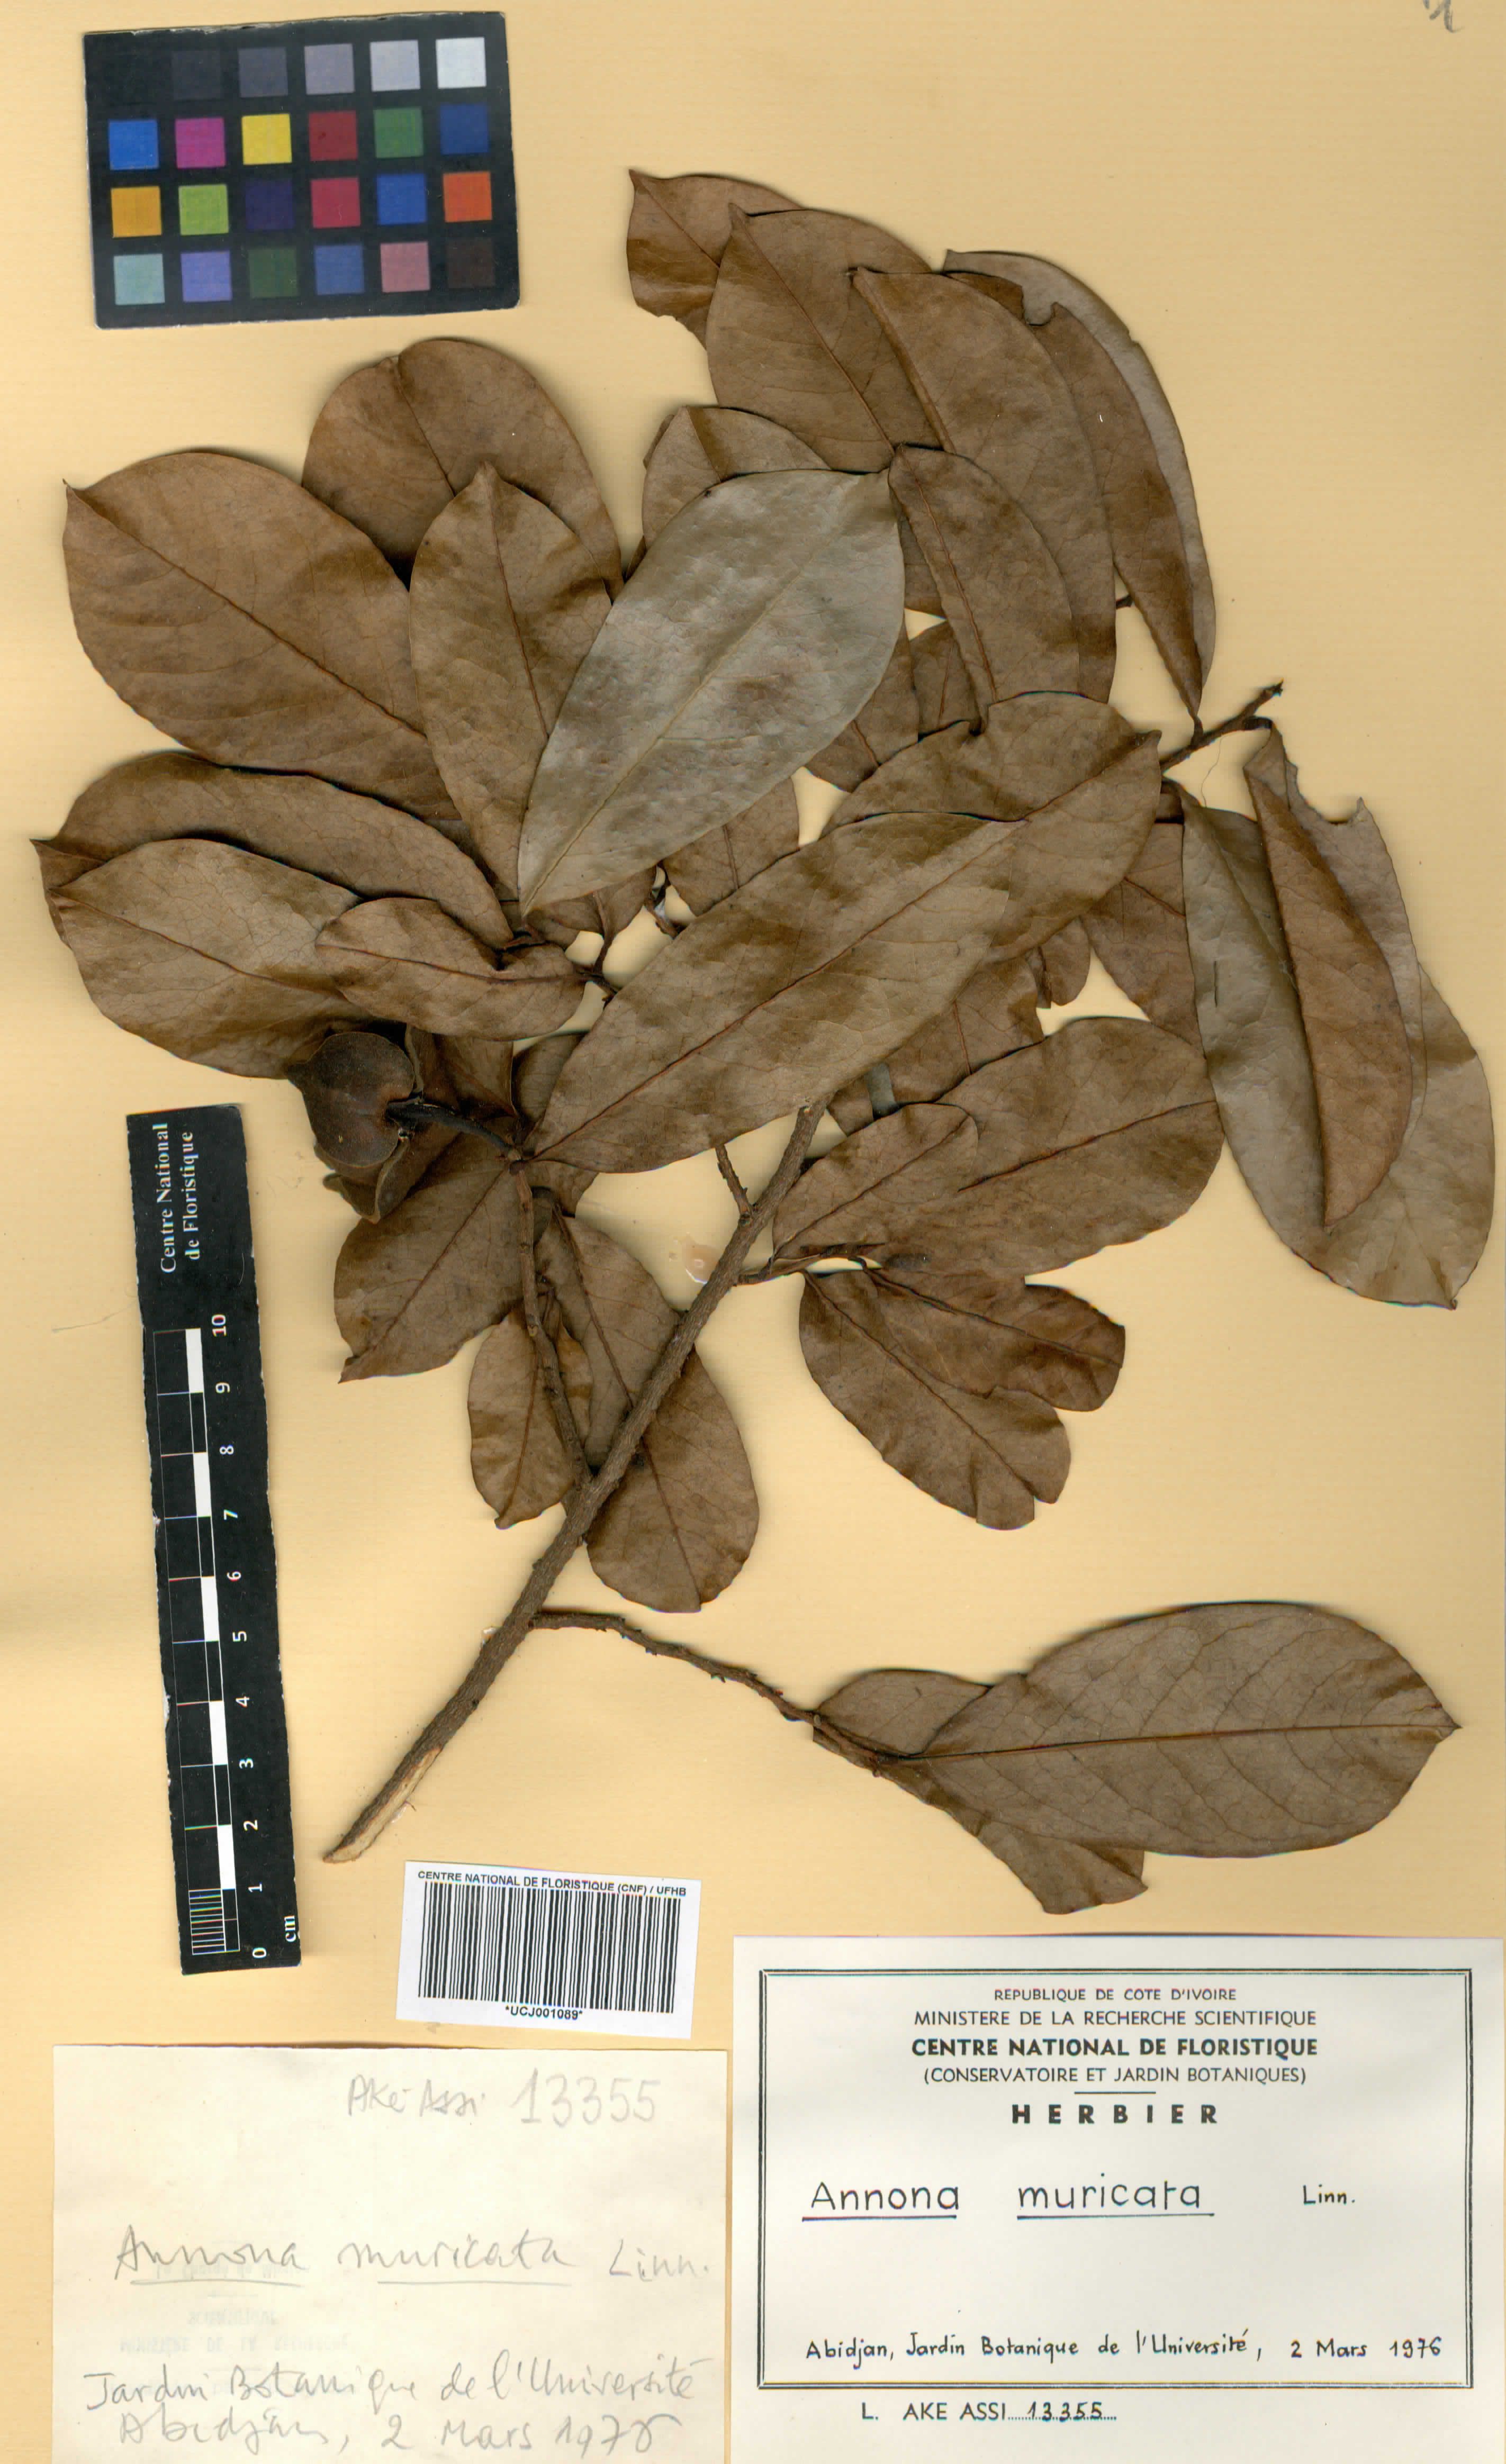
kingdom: Plantae
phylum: Tracheophyta
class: Magnoliopsida
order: Magnoliales
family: Annonaceae
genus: Annona
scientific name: Annona muricata
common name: Soursop
